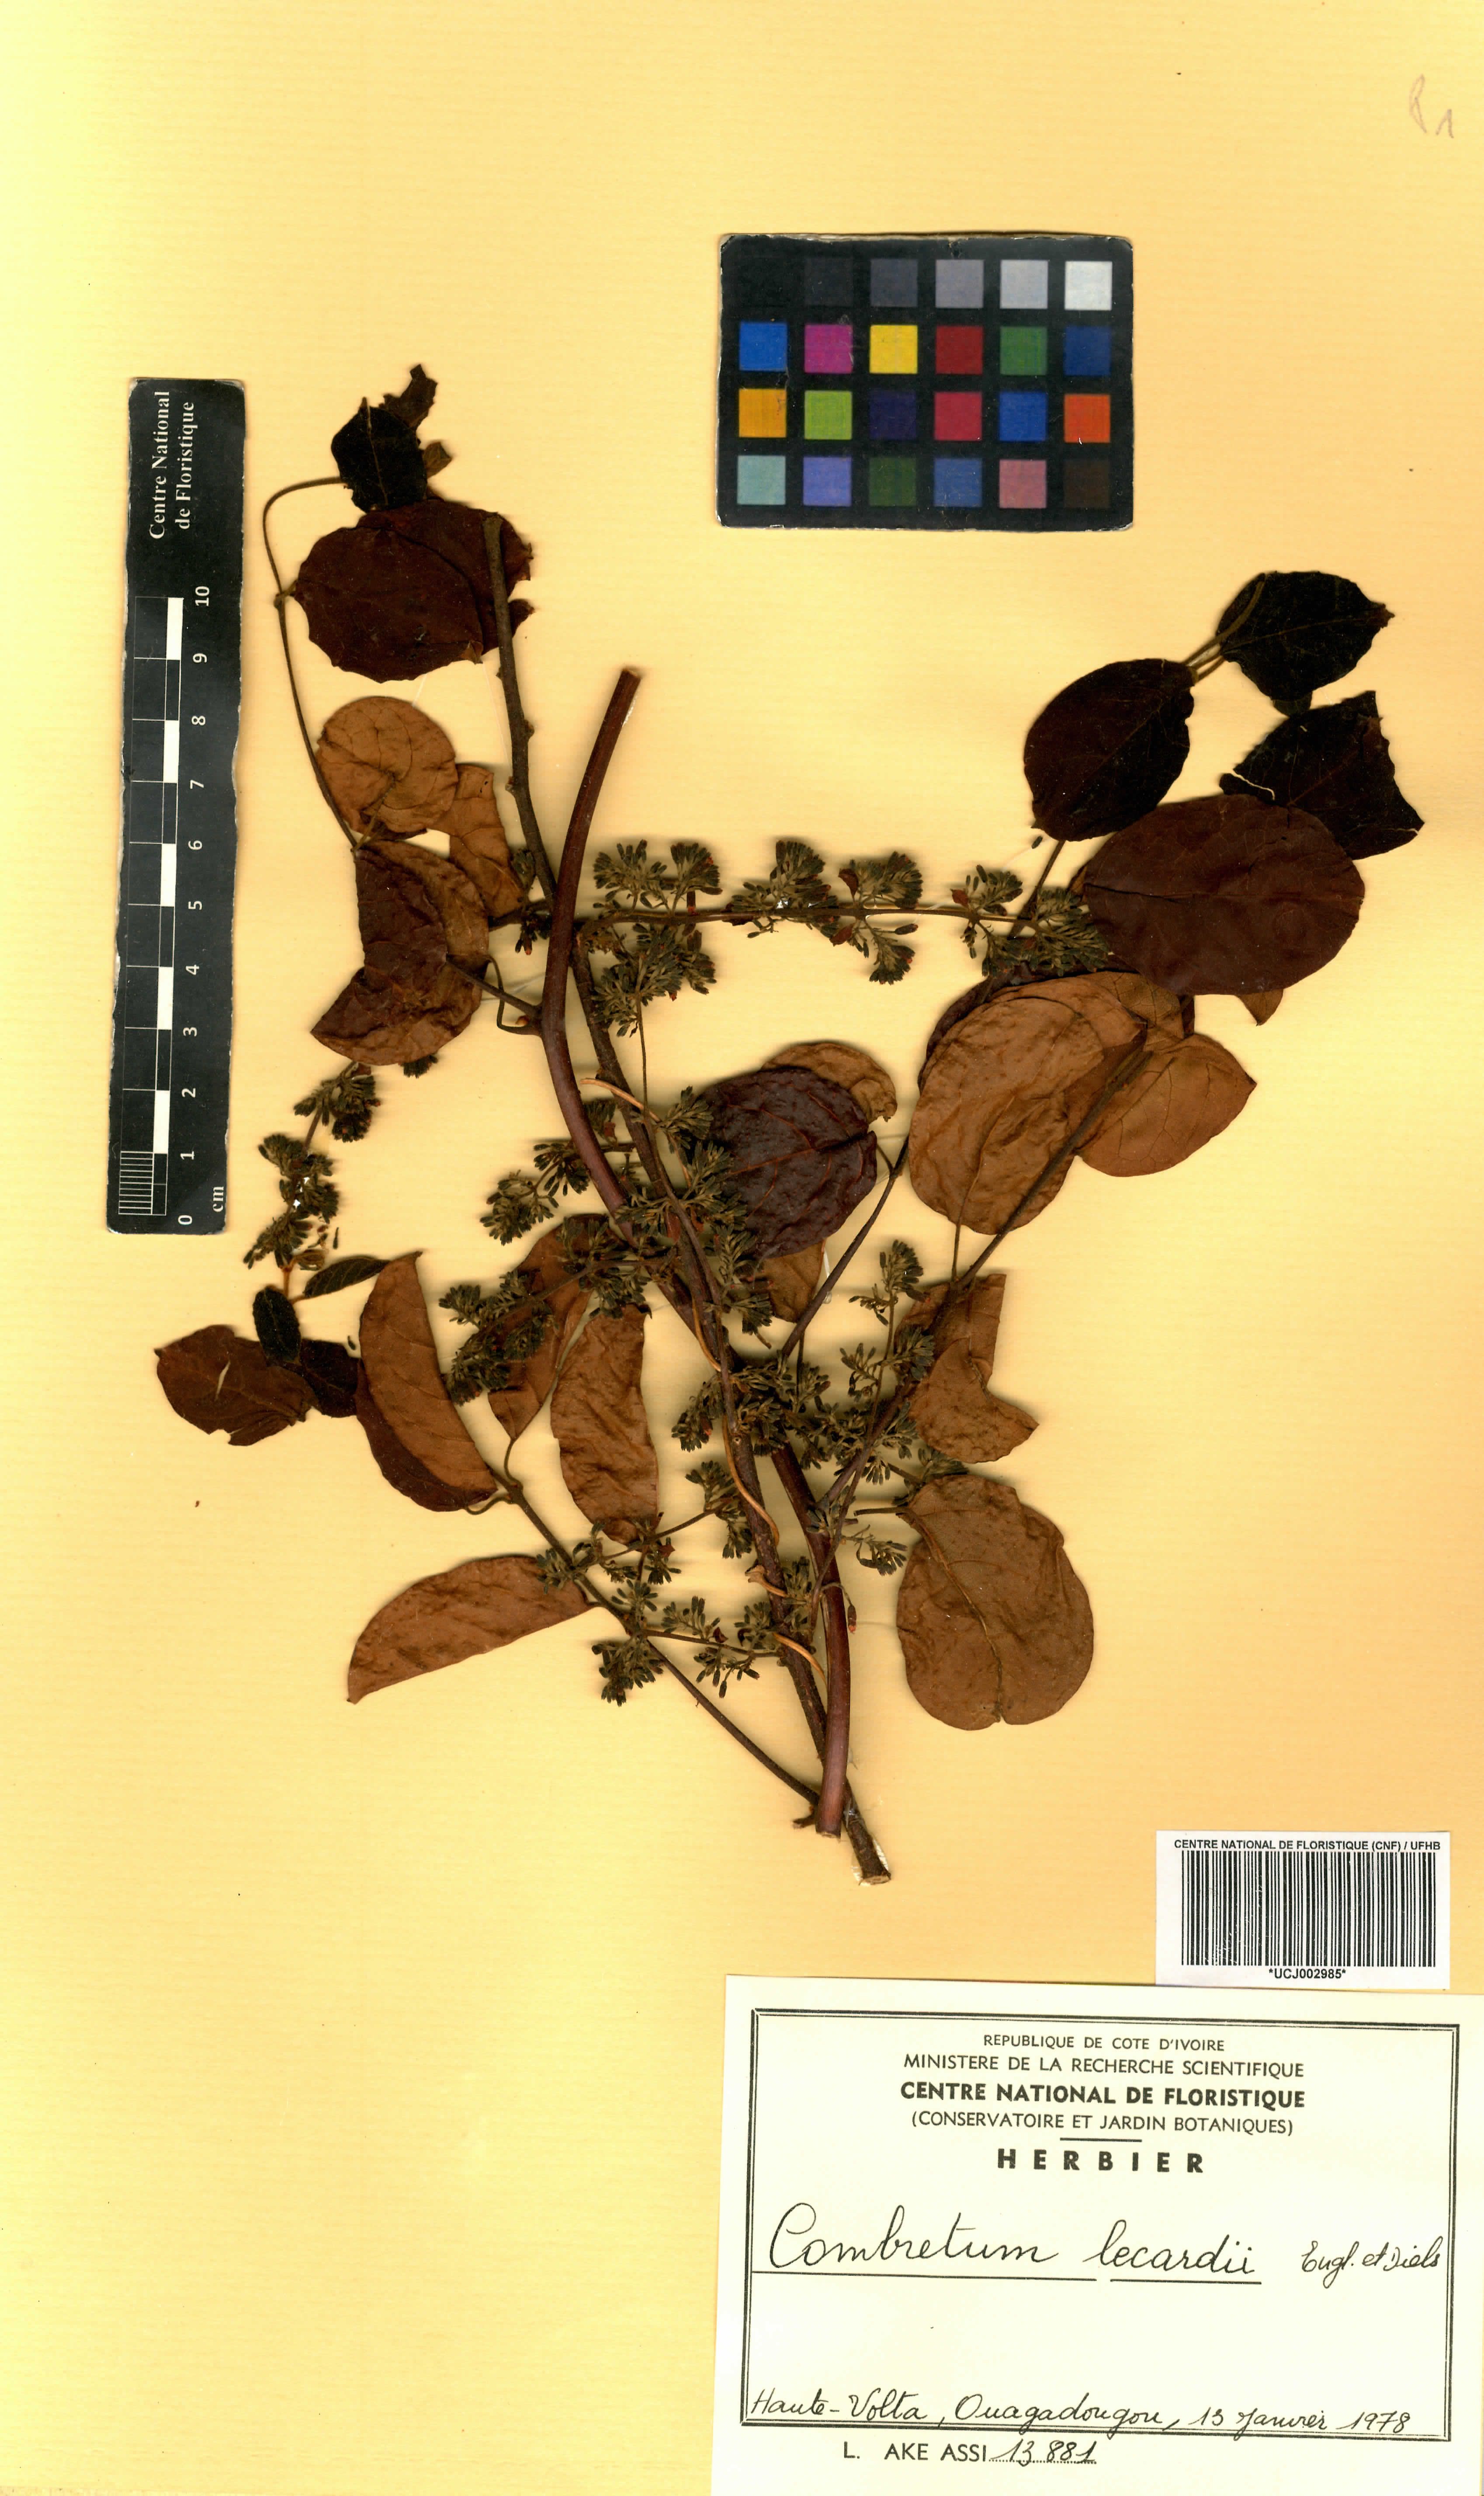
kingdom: Plantae
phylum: Tracheophyta
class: Magnoliopsida
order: Myrtales
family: Combretaceae
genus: Combretum
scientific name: Combretum lecardii
